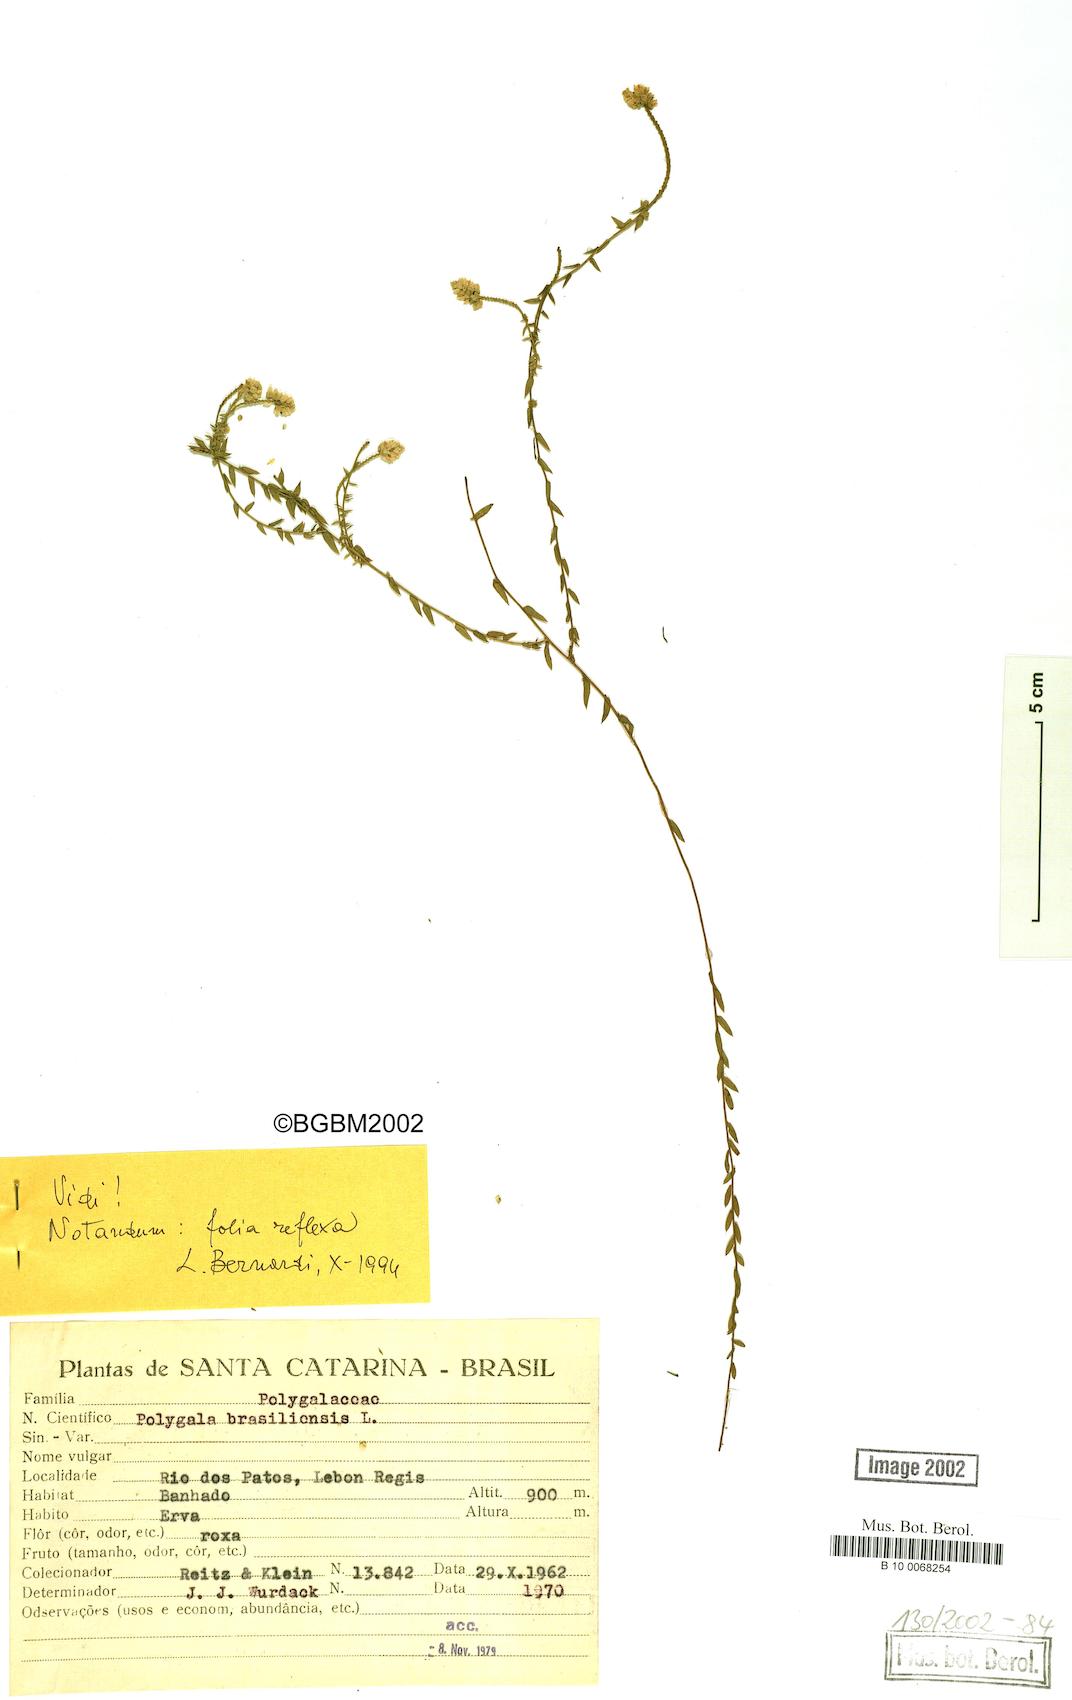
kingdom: Plantae
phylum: Tracheophyta
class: Magnoliopsida
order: Fabales
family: Polygalaceae
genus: Polygala
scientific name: Polygala brasiliensis
